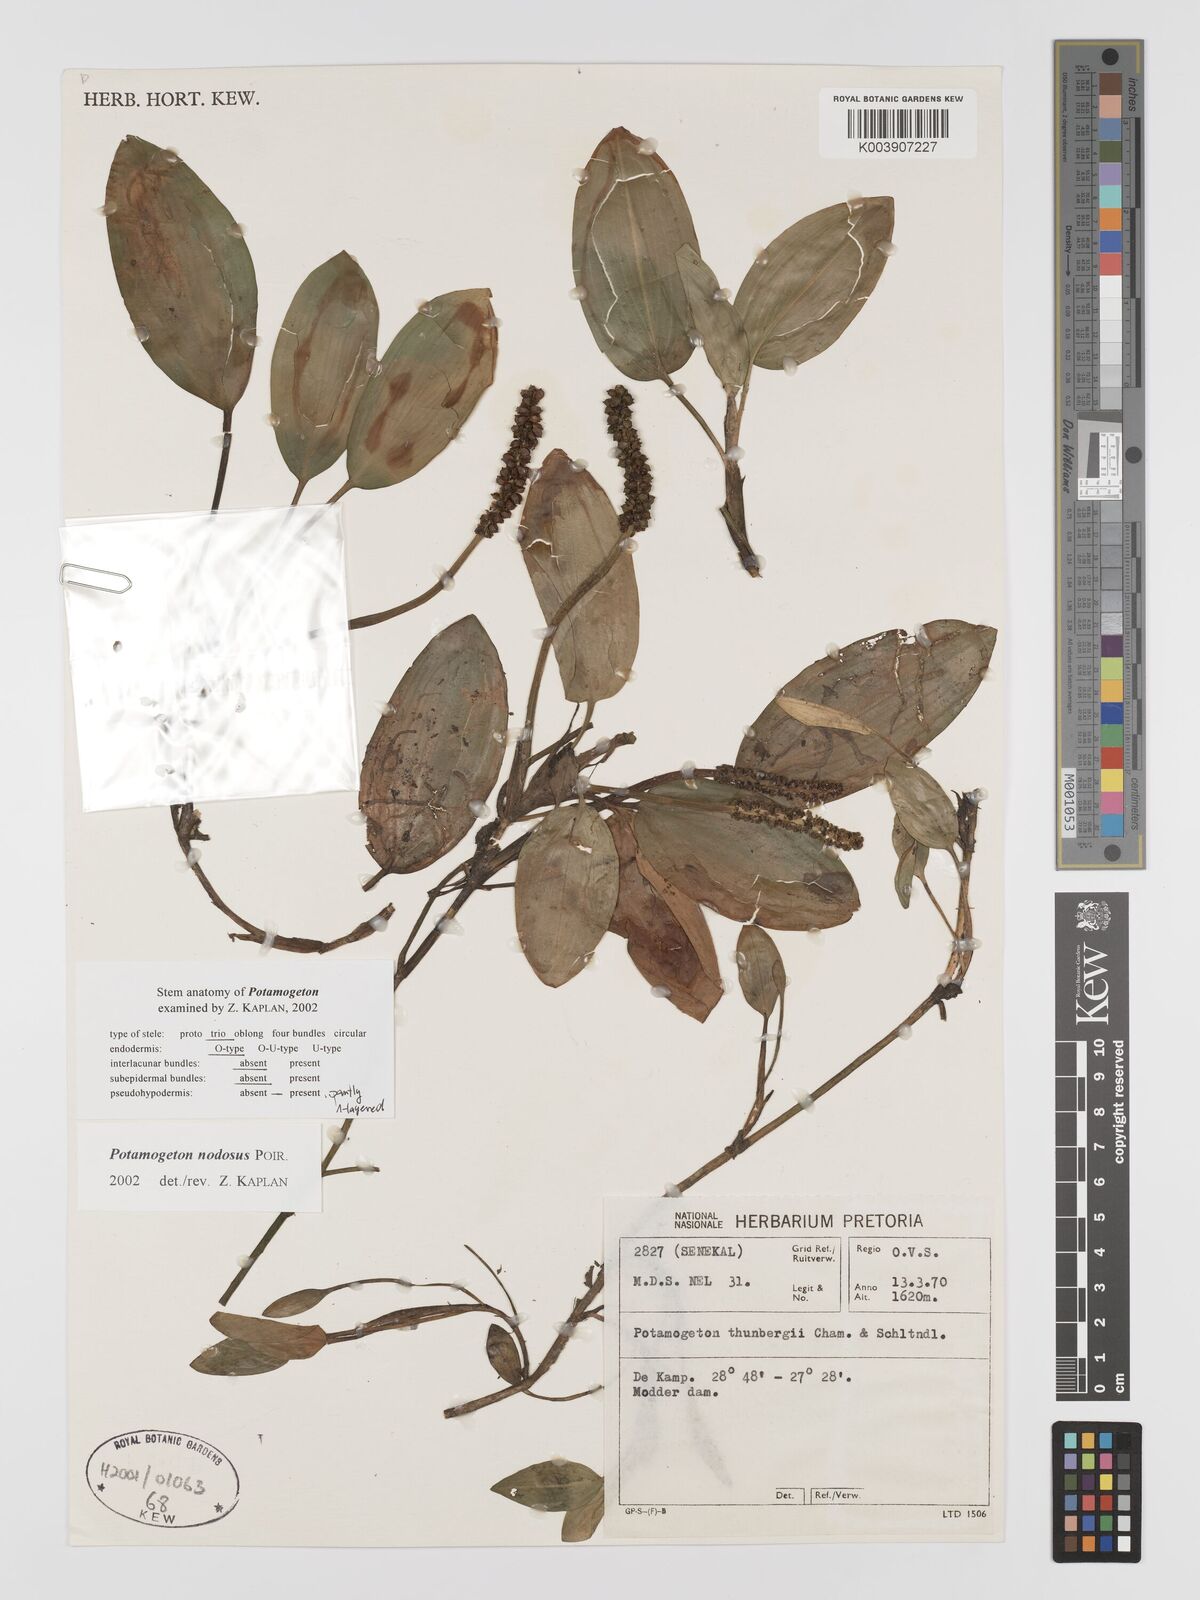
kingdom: Plantae
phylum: Tracheophyta
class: Liliopsida
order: Alismatales
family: Potamogetonaceae
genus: Potamogeton
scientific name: Potamogeton nodosus
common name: Loddon pondweed
